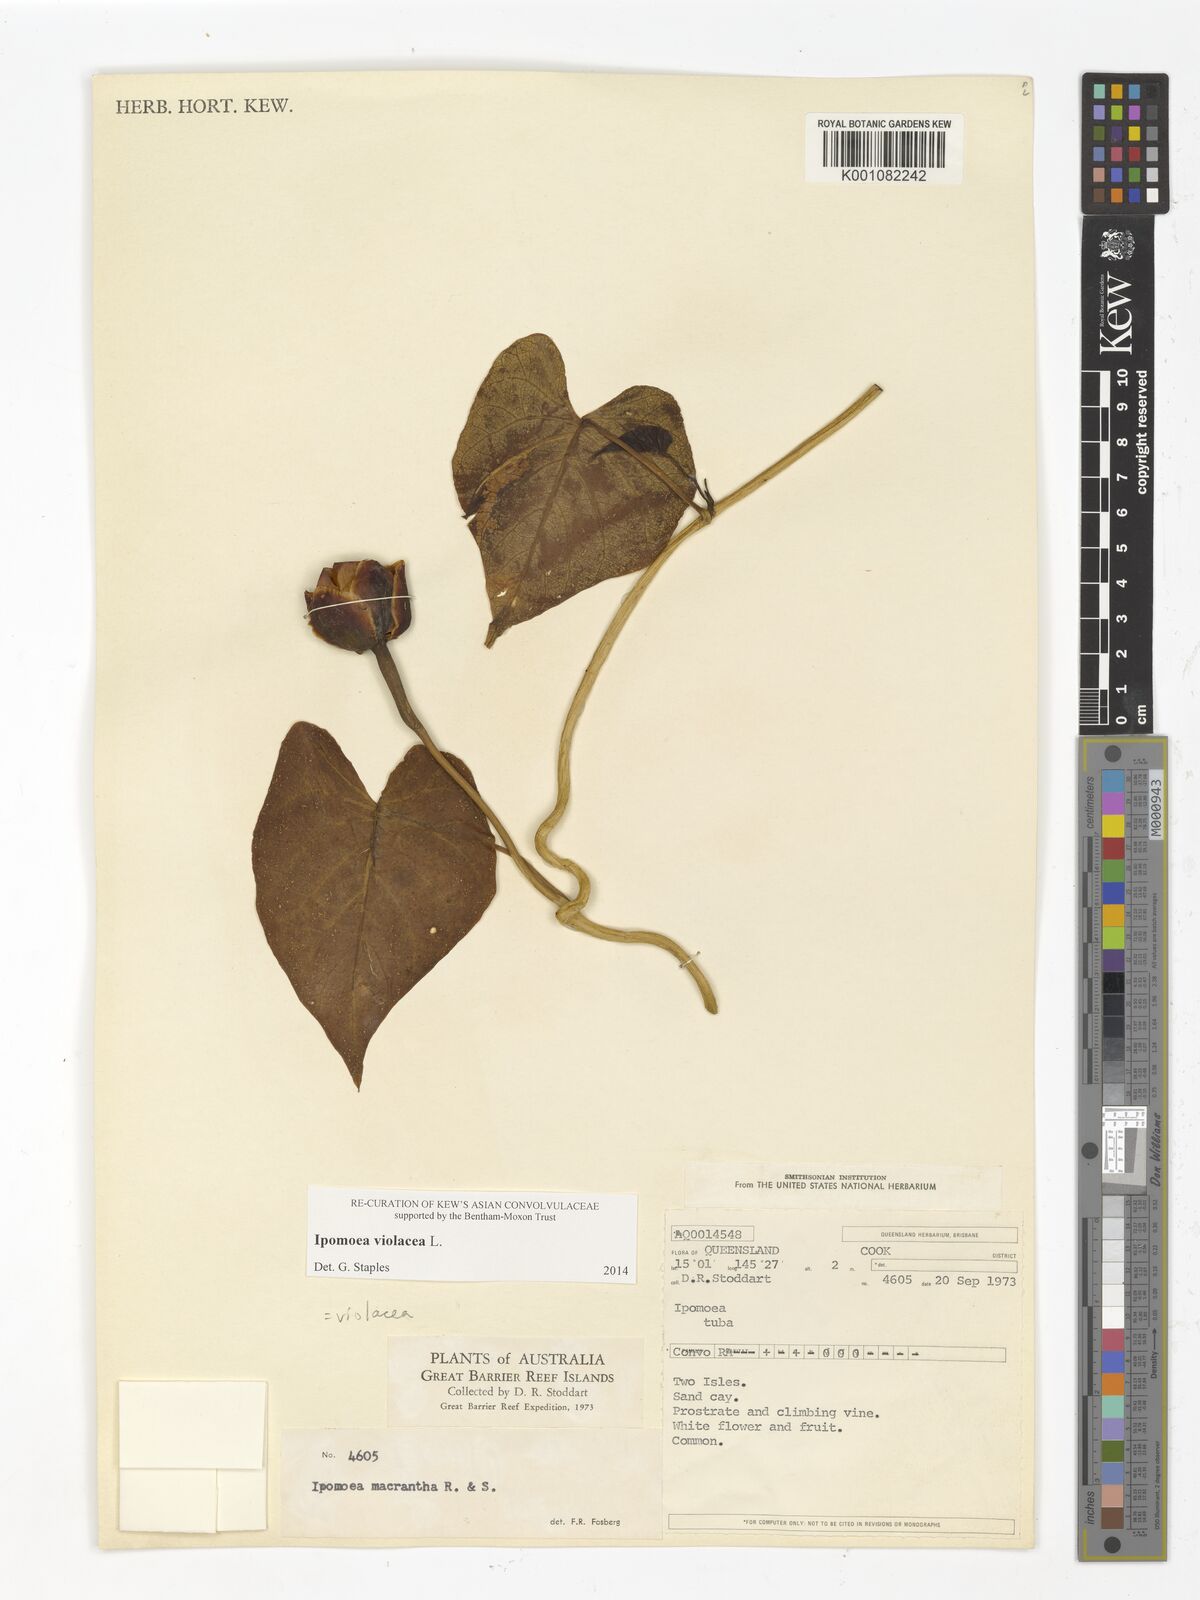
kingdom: Plantae
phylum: Tracheophyta
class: Magnoliopsida
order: Solanales
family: Convolvulaceae
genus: Ipomoea
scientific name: Ipomoea violacea
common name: Beach moonflower
